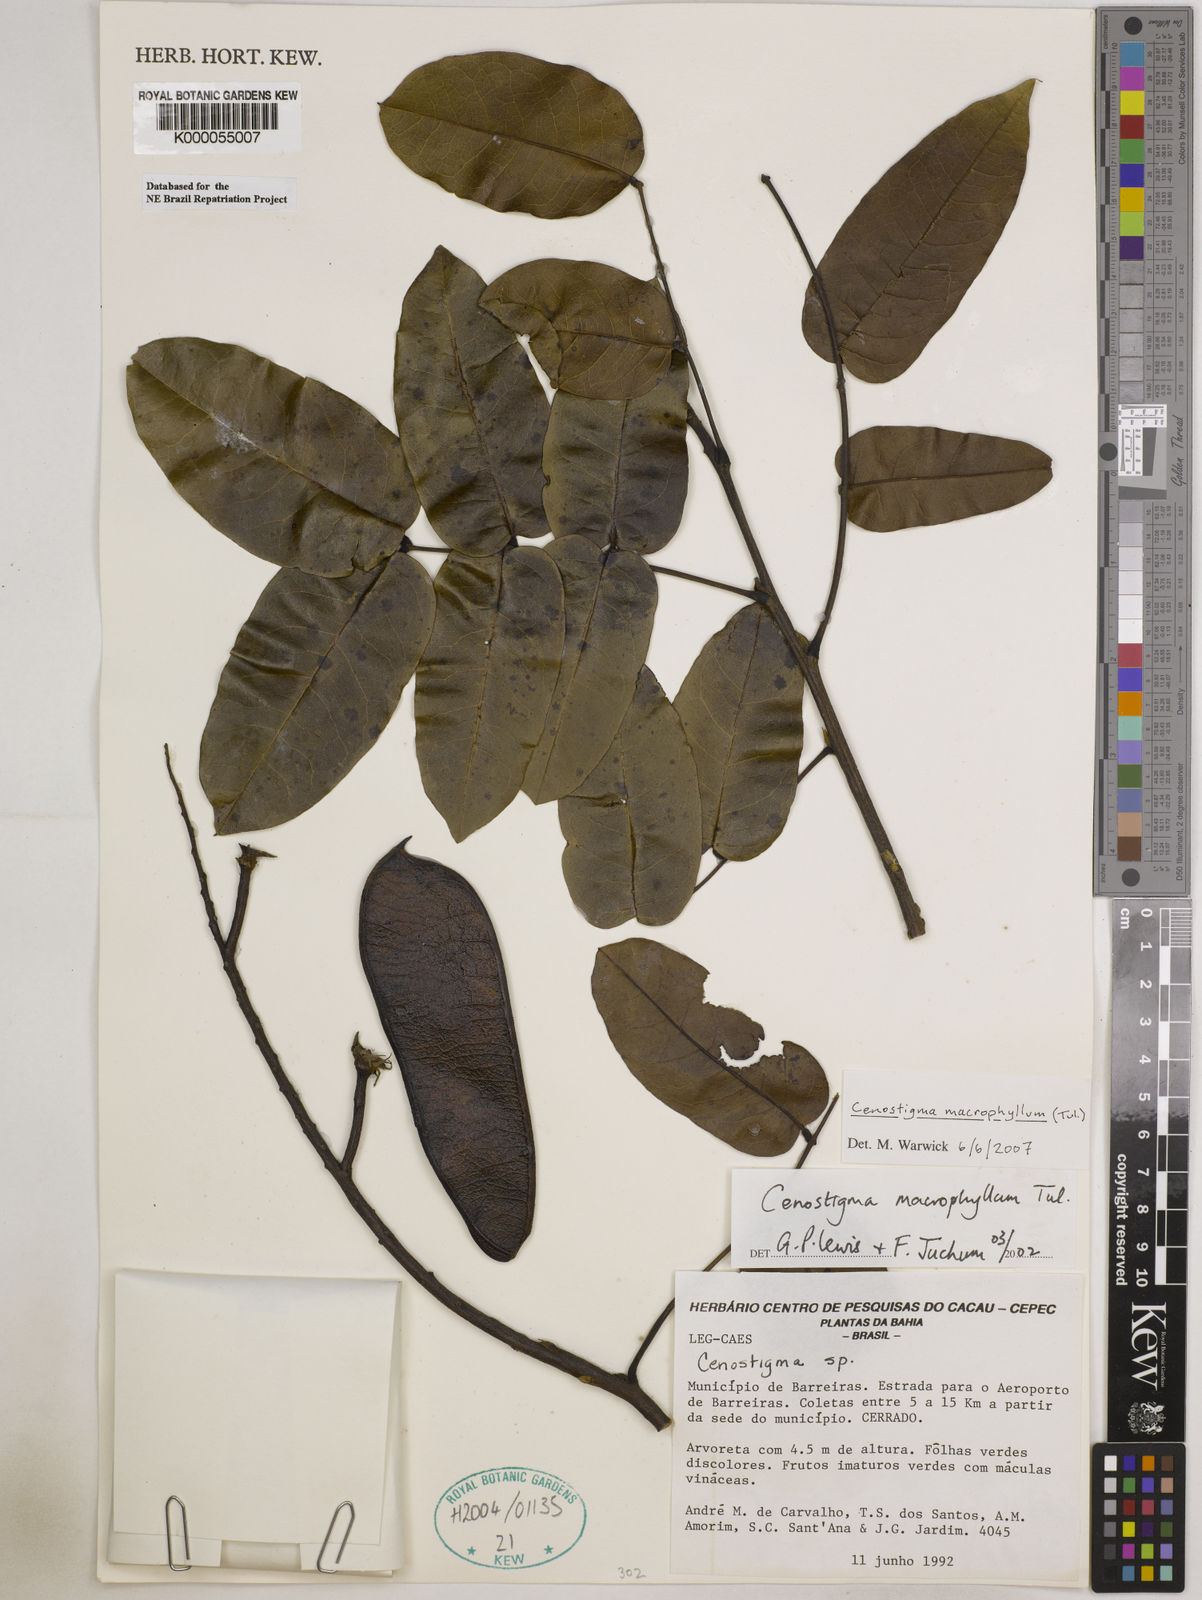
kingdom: Plantae
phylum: Tracheophyta
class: Magnoliopsida
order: Fabales
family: Fabaceae
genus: Cenostigma
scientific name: Cenostigma macrophyllum
